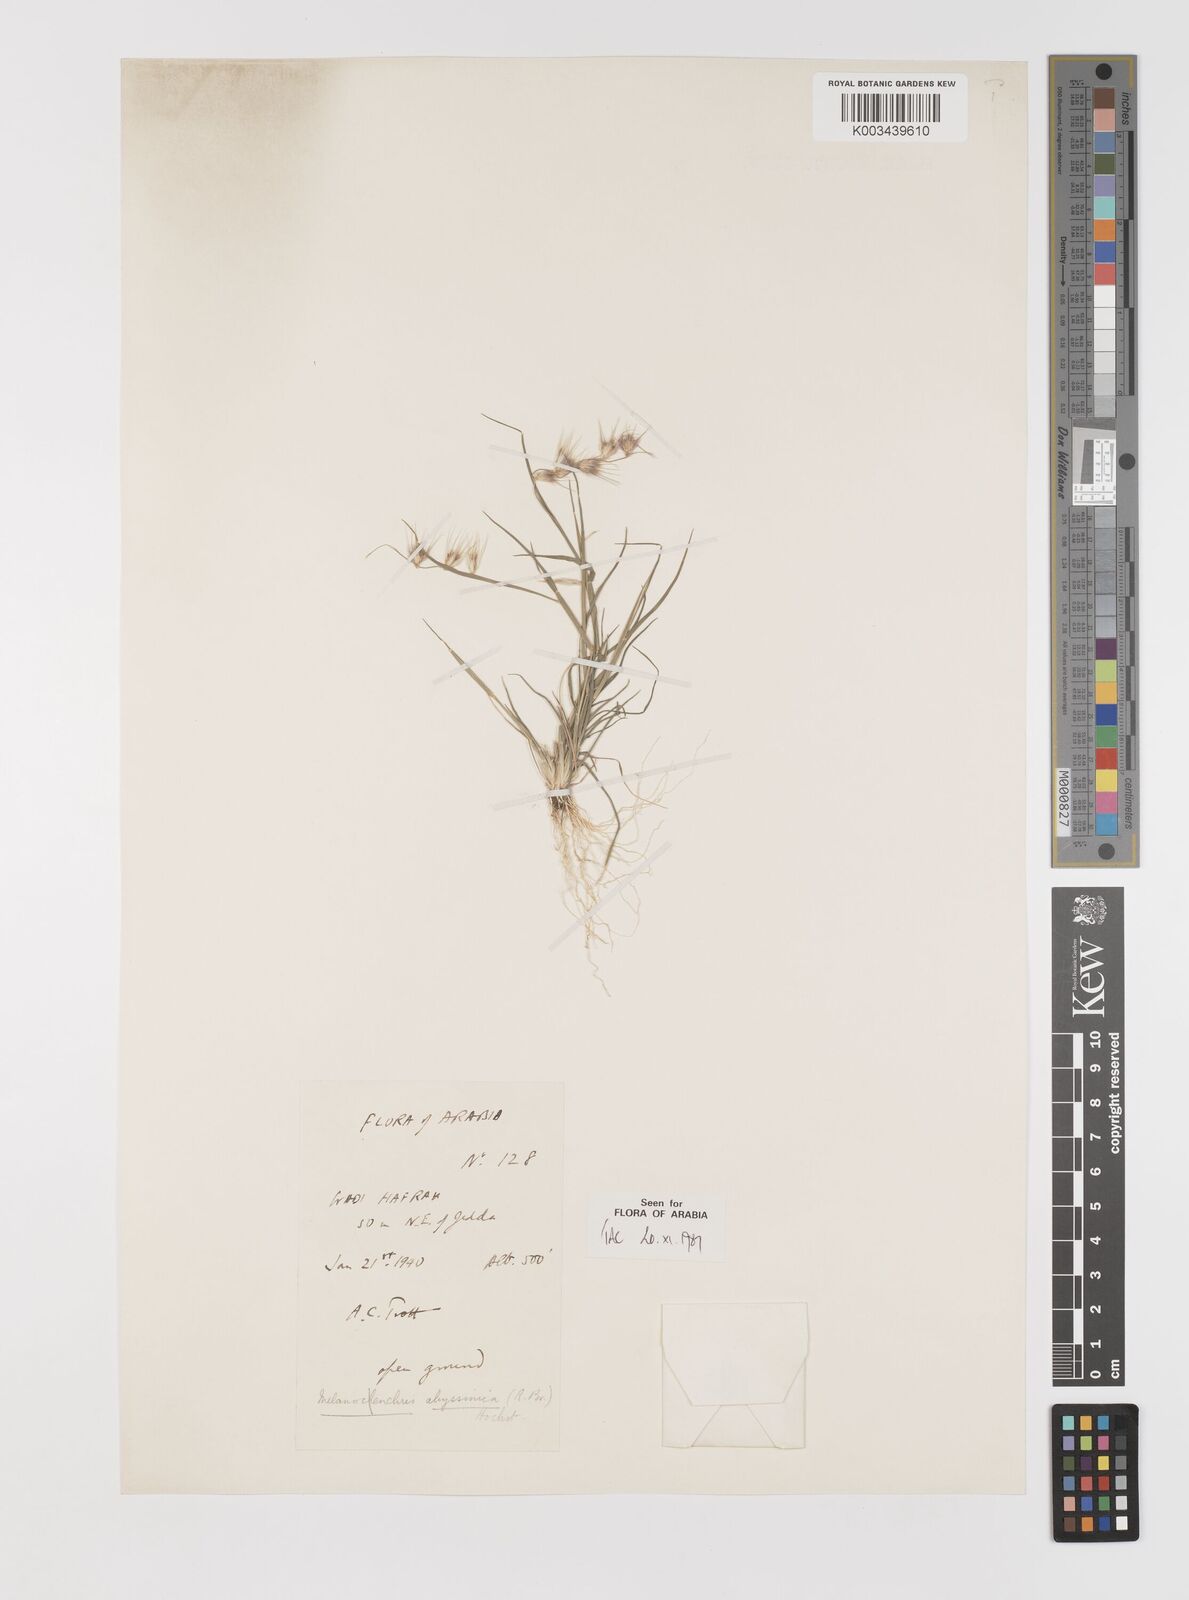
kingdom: Plantae
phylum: Tracheophyta
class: Liliopsida
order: Poales
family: Poaceae
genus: Melanocenchris
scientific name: Melanocenchris abyssinica
